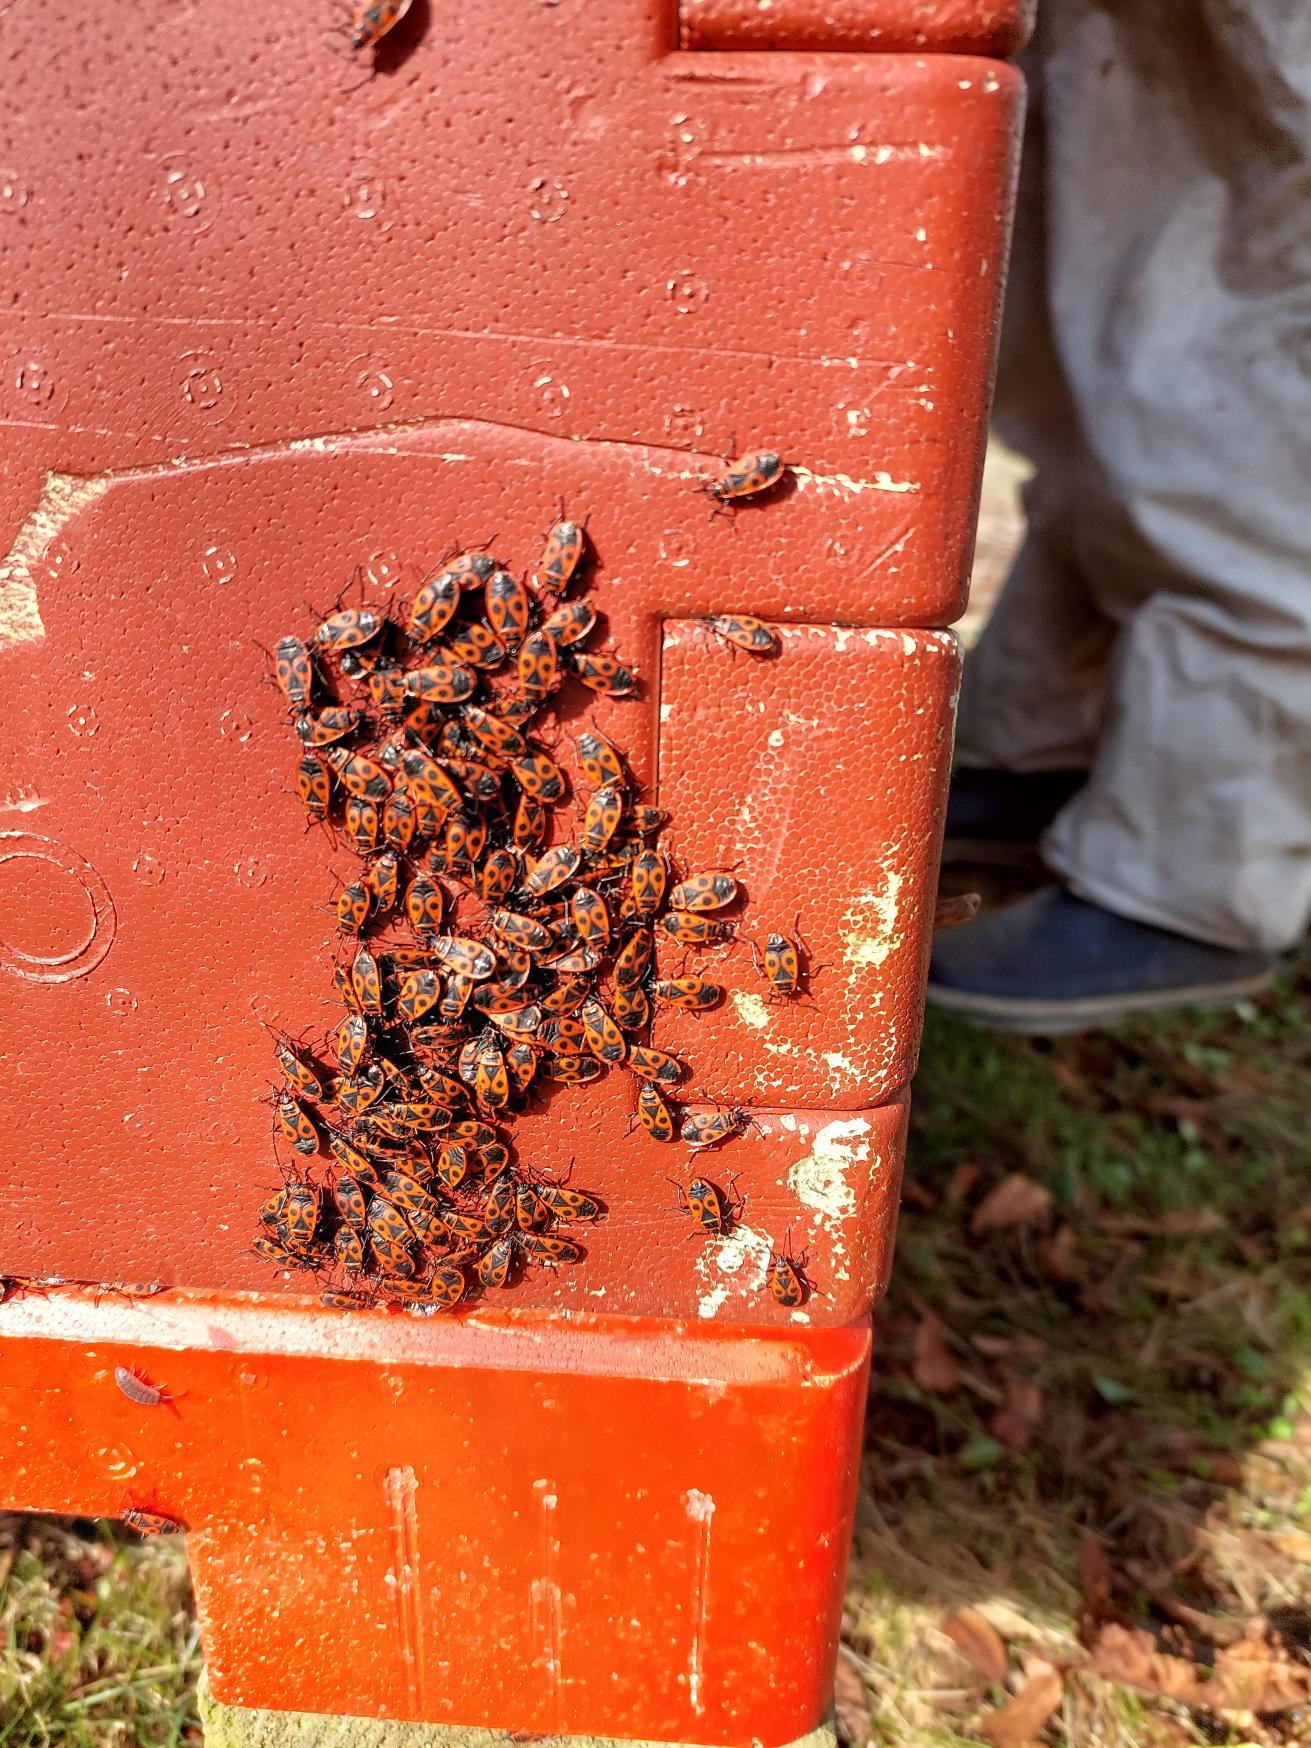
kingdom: Animalia
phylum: Arthropoda
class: Insecta
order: Hemiptera
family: Pyrrhocoridae
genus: Pyrrhocoris
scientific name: Pyrrhocoris apterus
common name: Ildtæge
